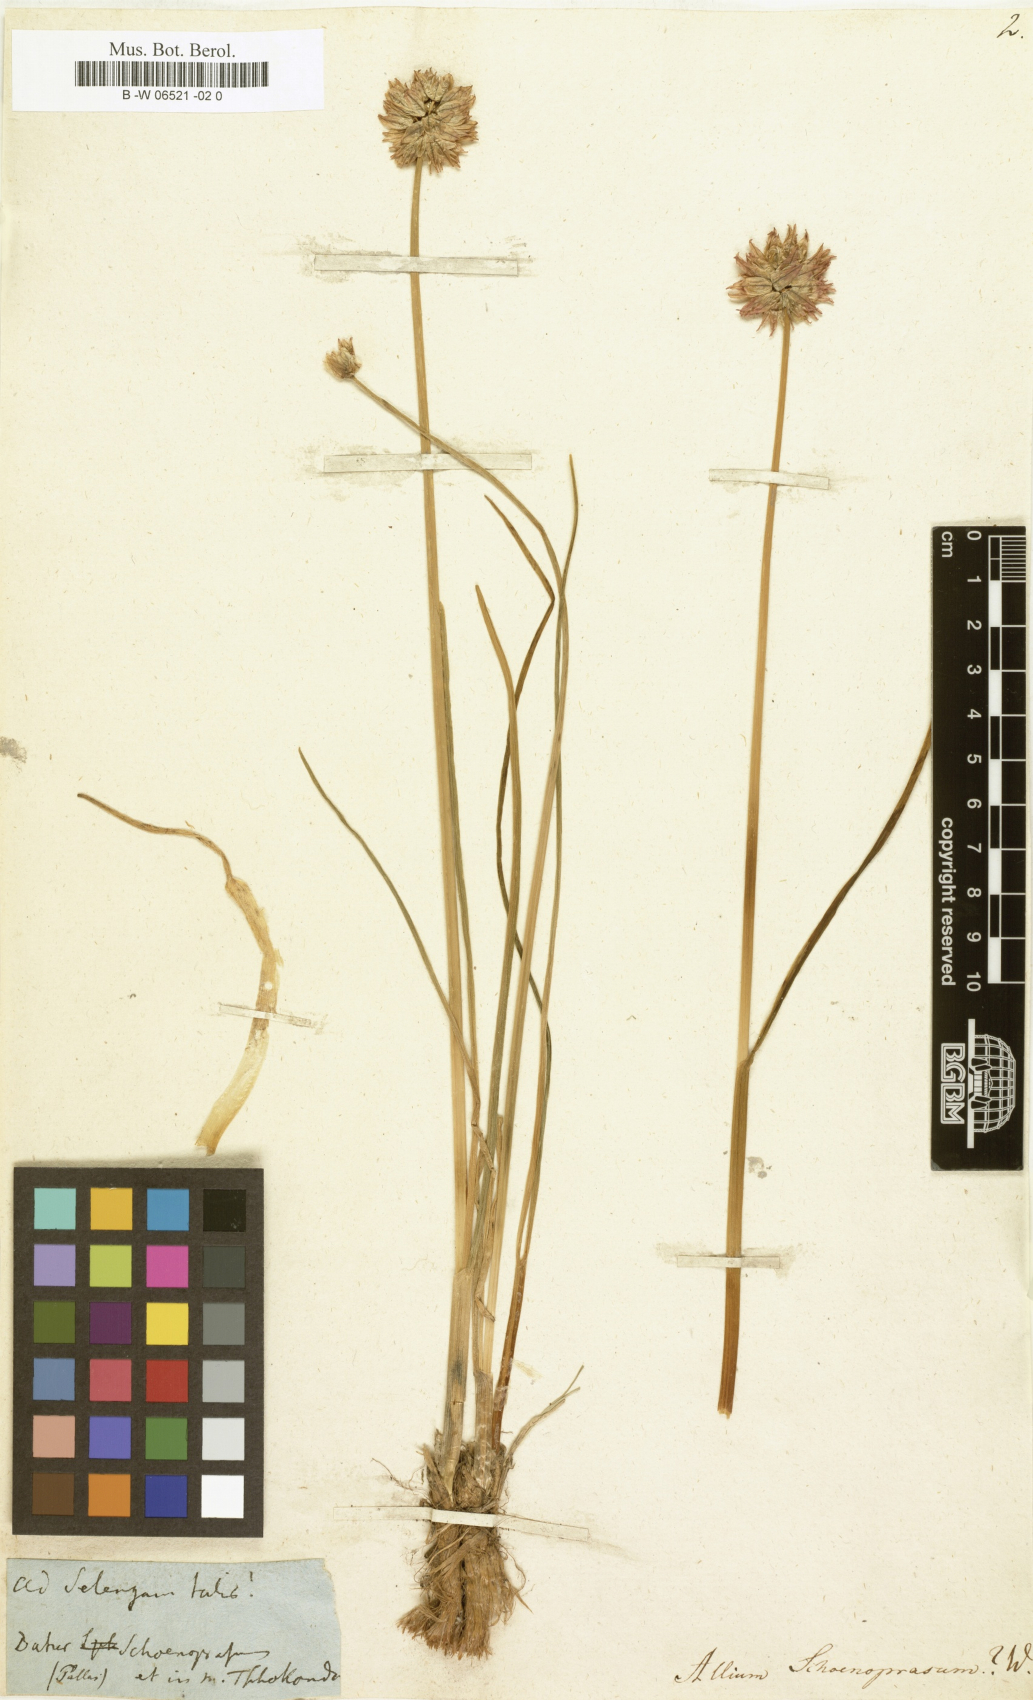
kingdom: Plantae
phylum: Tracheophyta
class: Liliopsida
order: Asparagales
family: Amaryllidaceae
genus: Allium
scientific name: Allium schoenoprasum
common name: Chives
